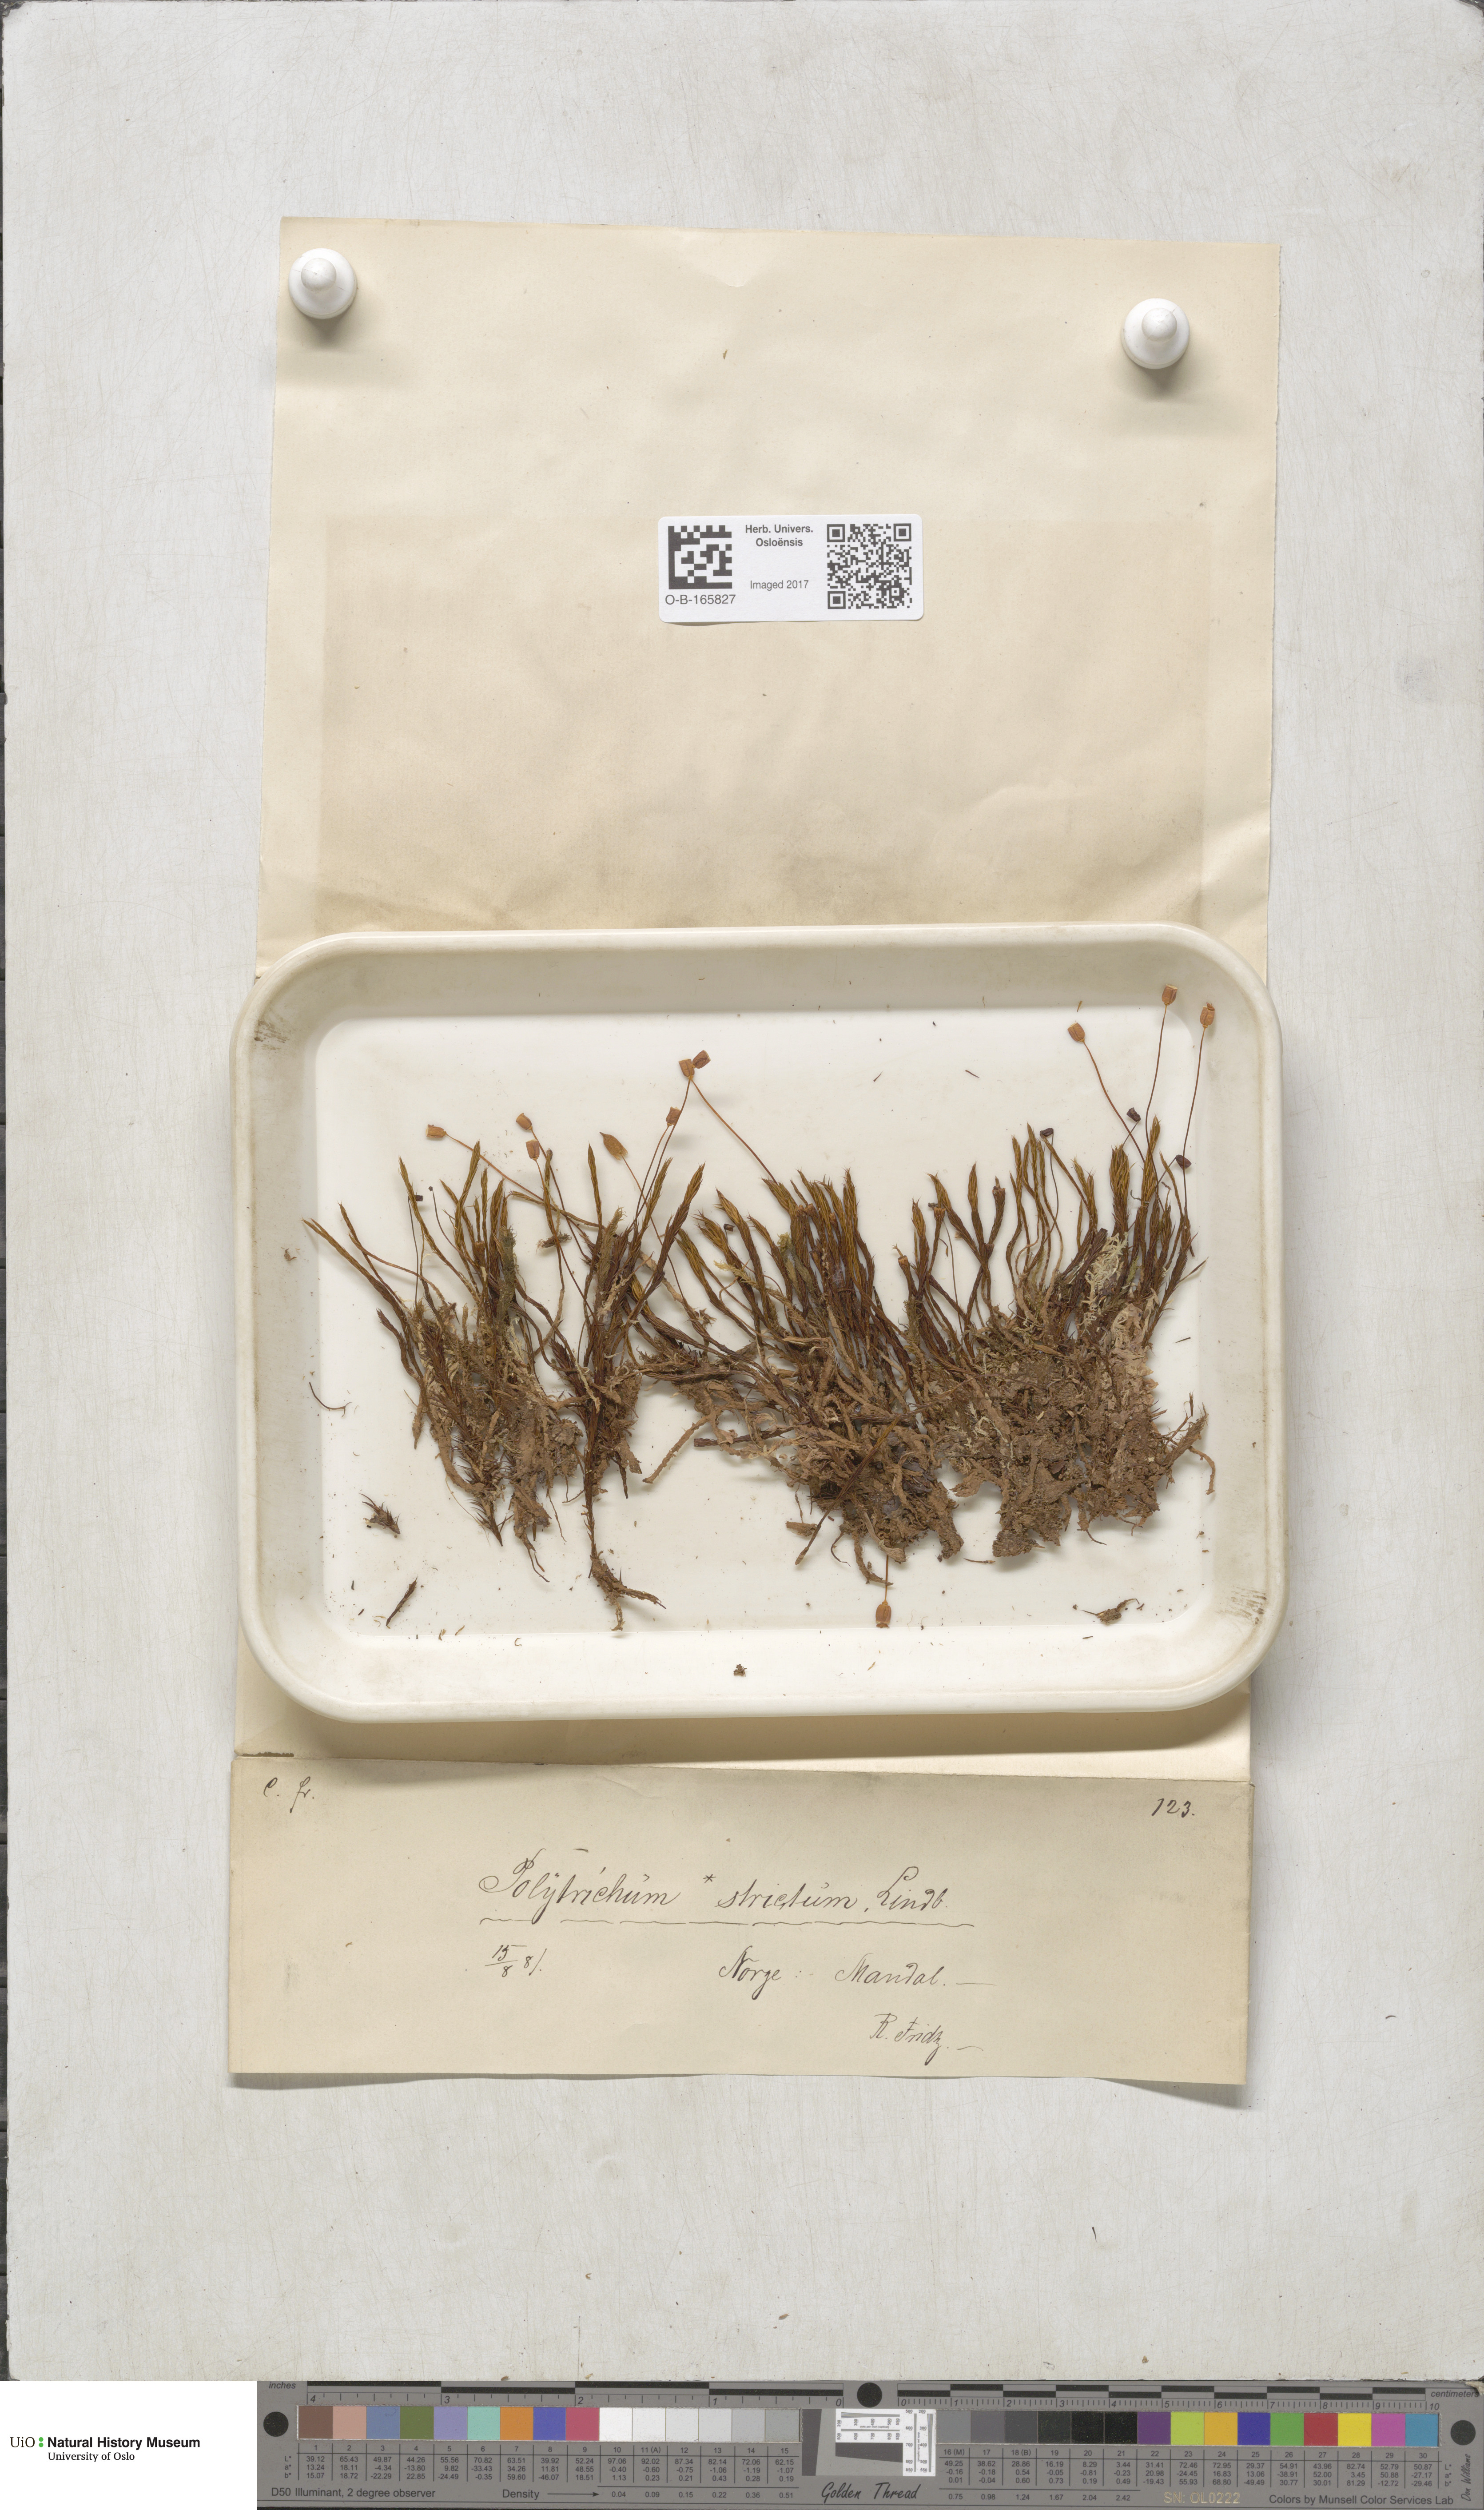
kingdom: Plantae
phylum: Bryophyta
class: Polytrichopsida
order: Polytrichales
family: Polytrichaceae
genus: Polytrichum
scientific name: Polytrichum strictum
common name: Bog haircap moss
